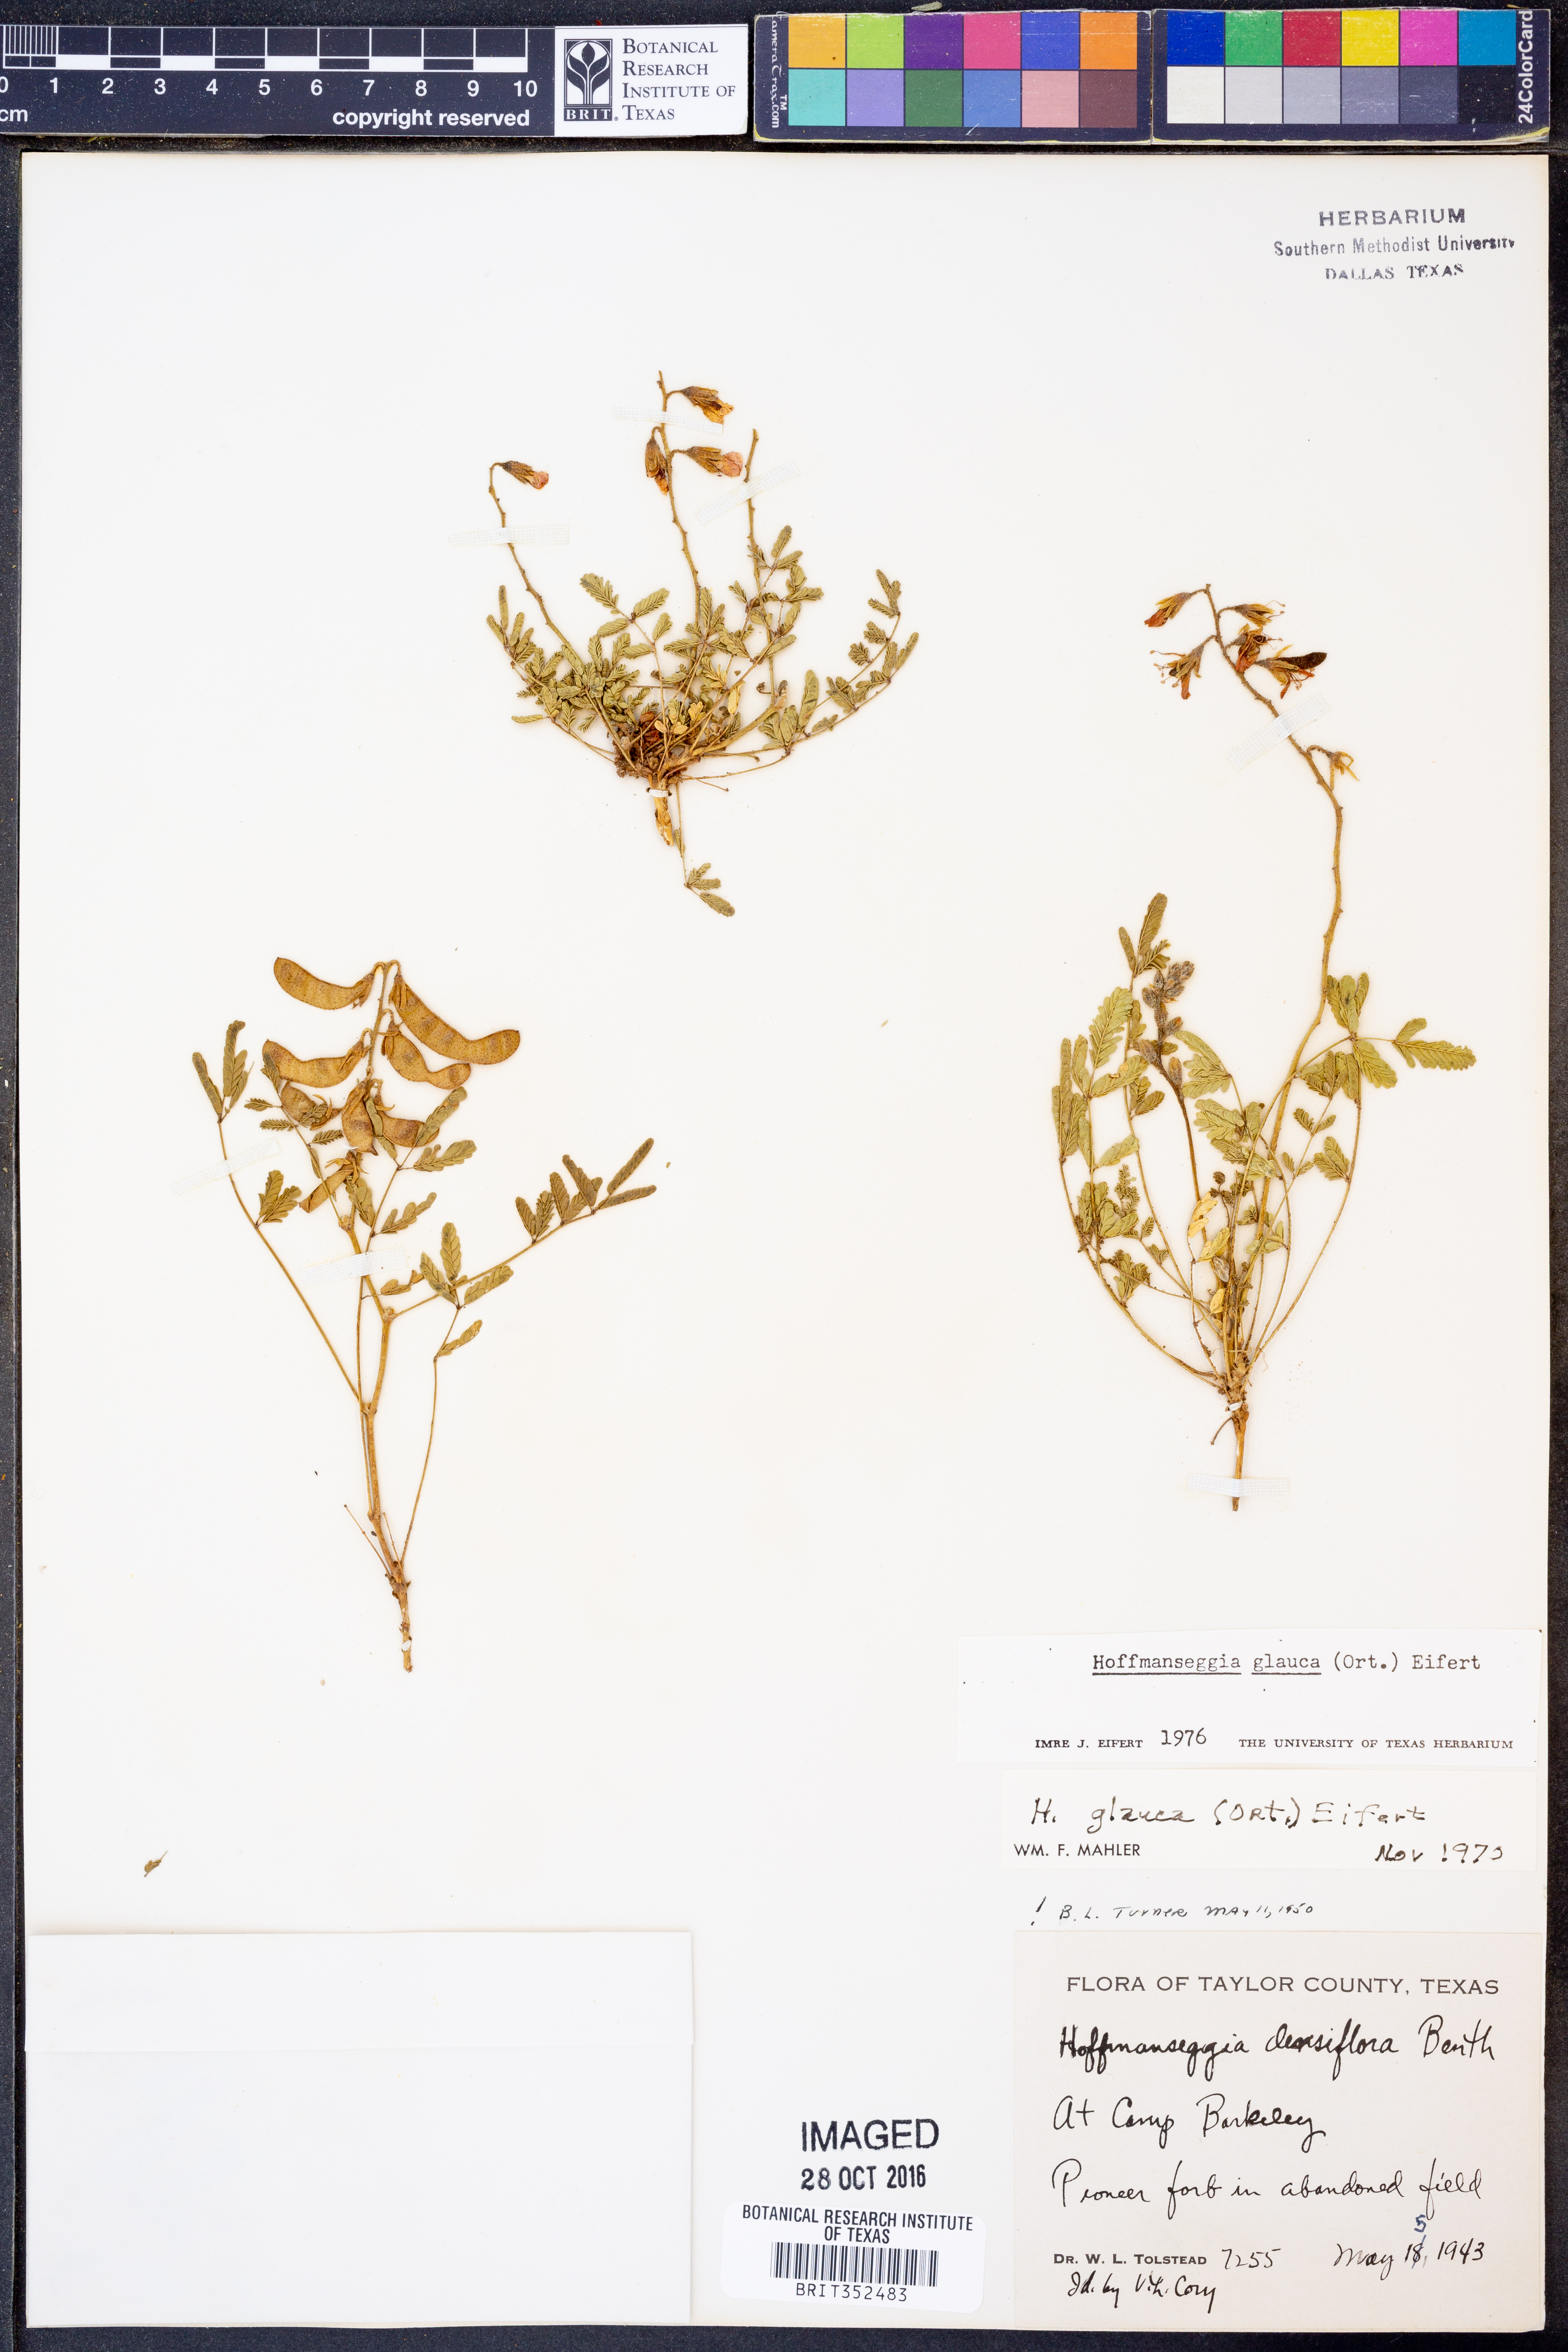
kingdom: Plantae
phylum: Tracheophyta
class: Magnoliopsida
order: Fabales
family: Fabaceae
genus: Hoffmannseggia
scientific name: Hoffmannseggia glauca
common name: Pignut
